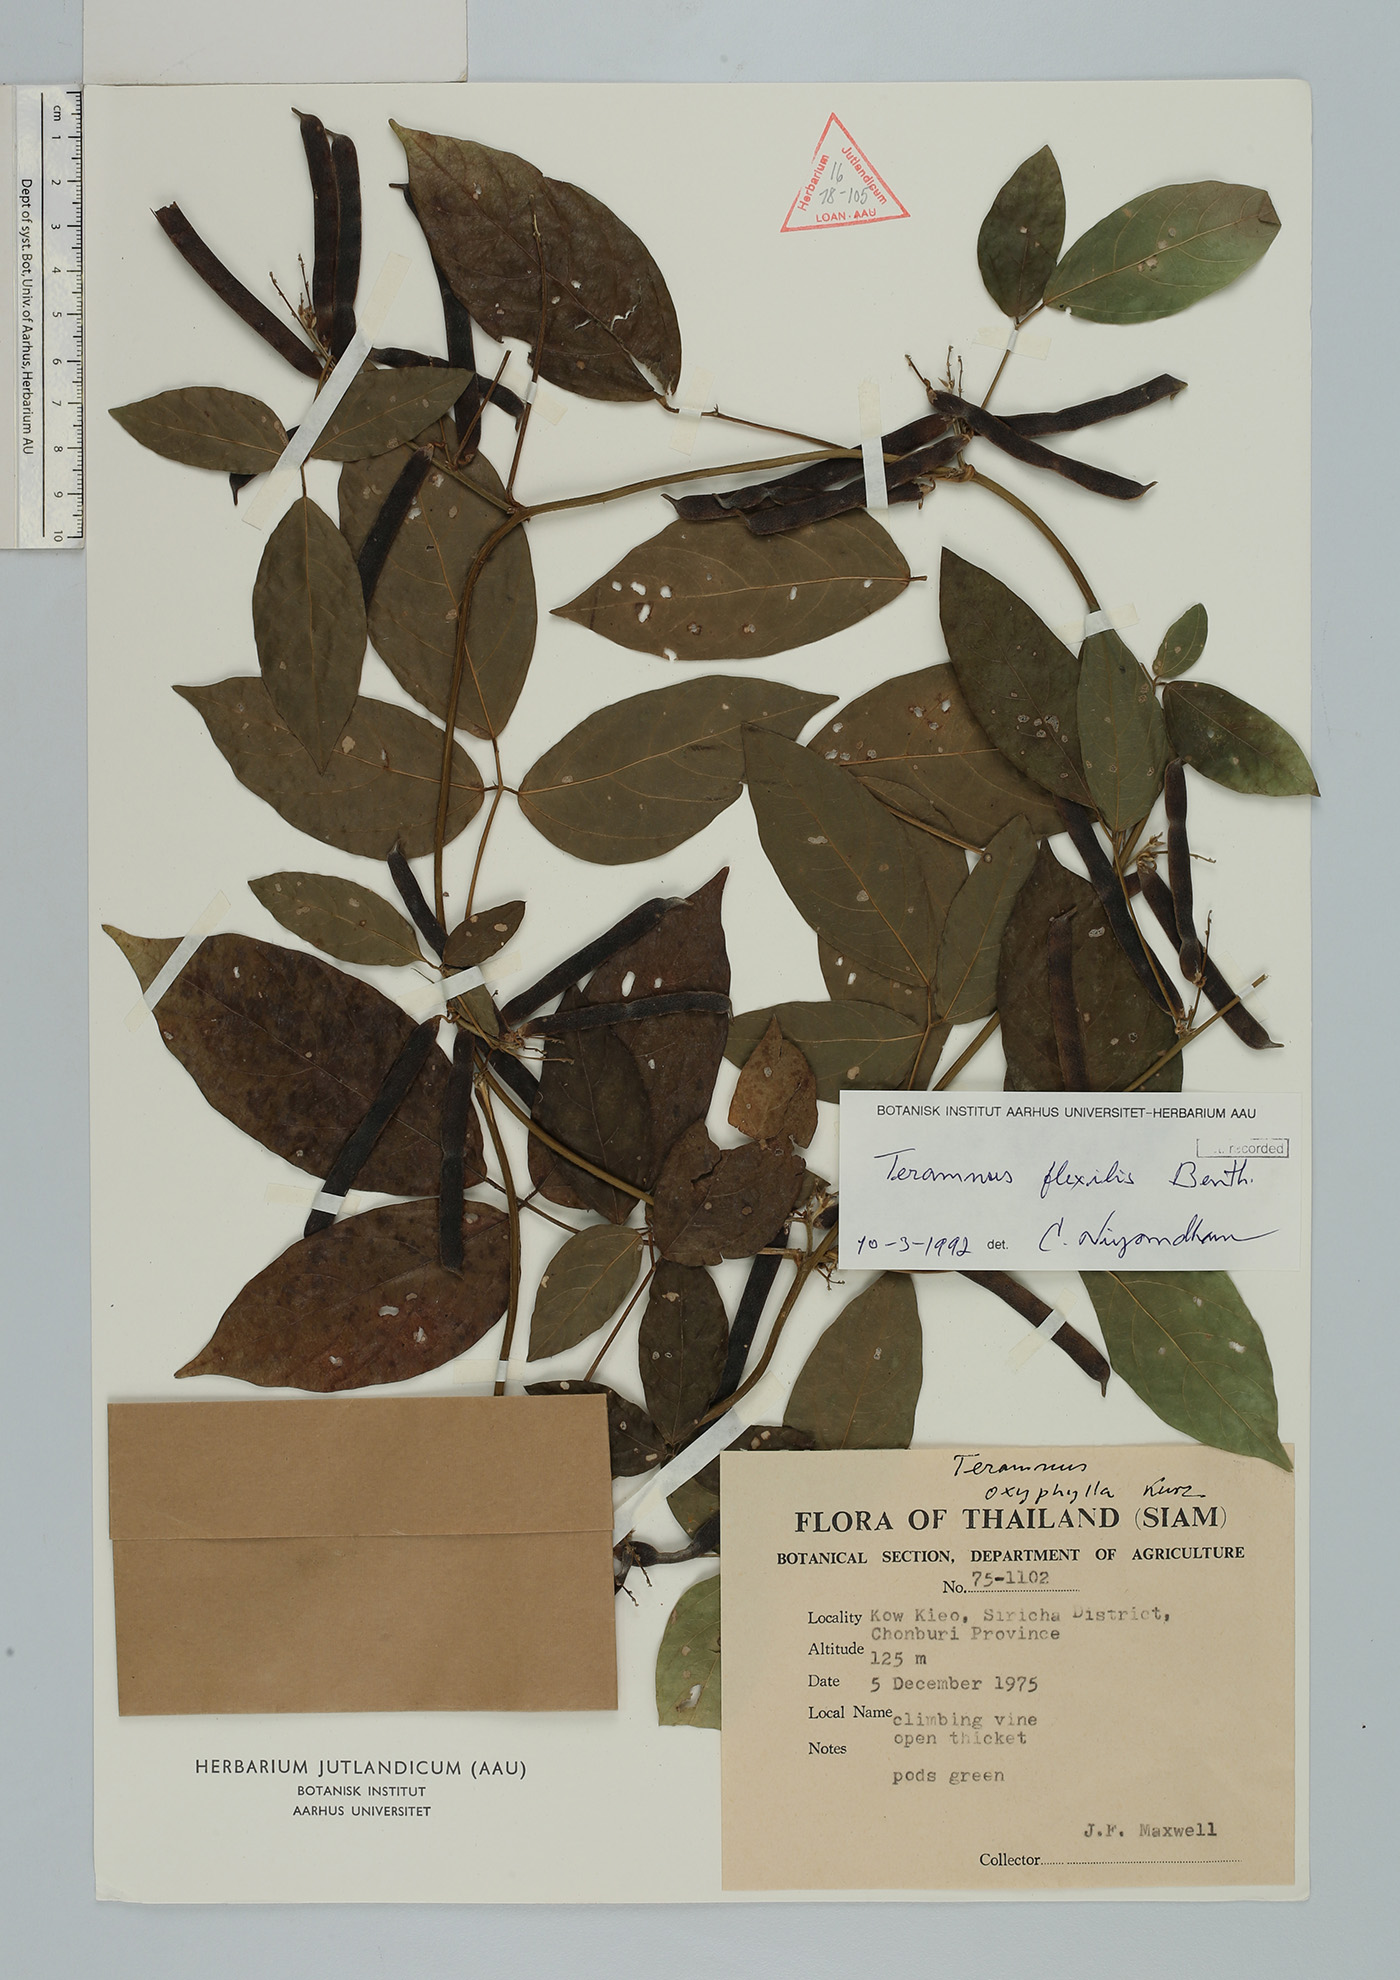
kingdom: Plantae
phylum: Tracheophyta
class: Magnoliopsida
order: Fabales
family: Fabaceae
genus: Teramnus
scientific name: Teramnus flexilis
